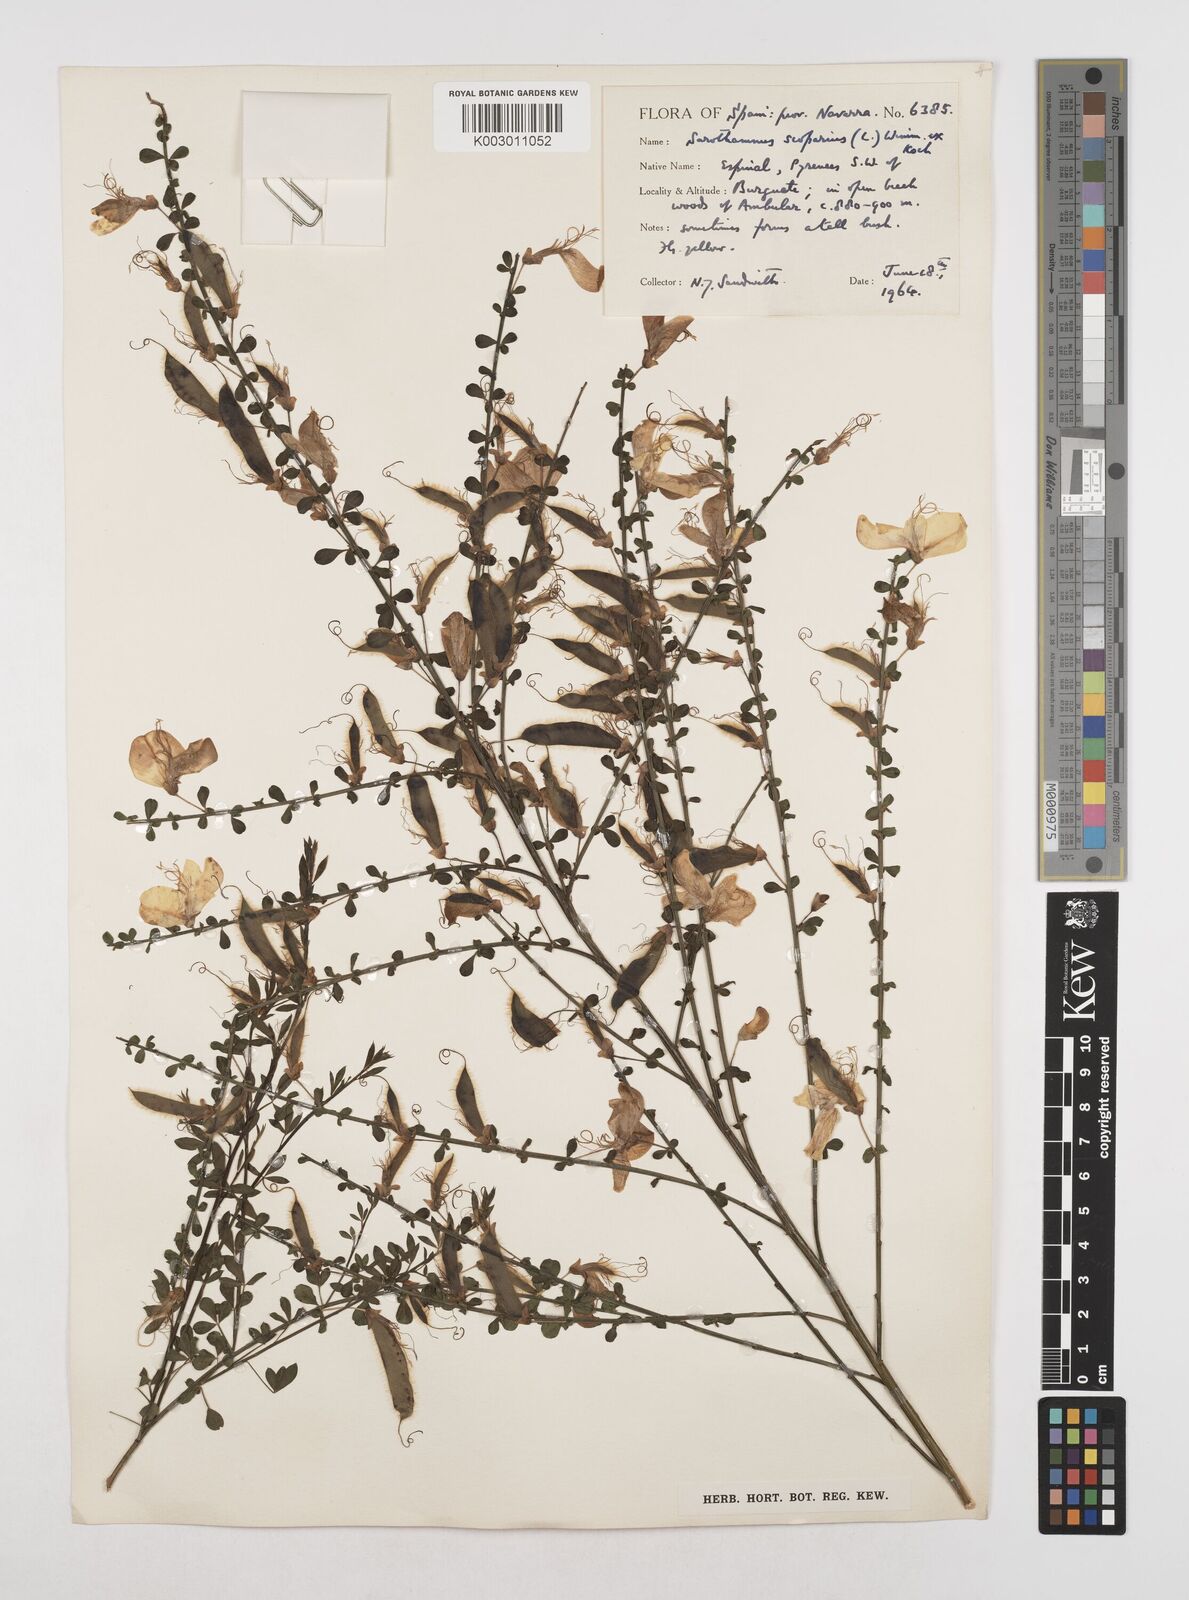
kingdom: Plantae
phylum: Tracheophyta
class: Magnoliopsida
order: Fabales
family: Fabaceae
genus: Cytisus
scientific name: Cytisus scoparius
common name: Scotch broom
